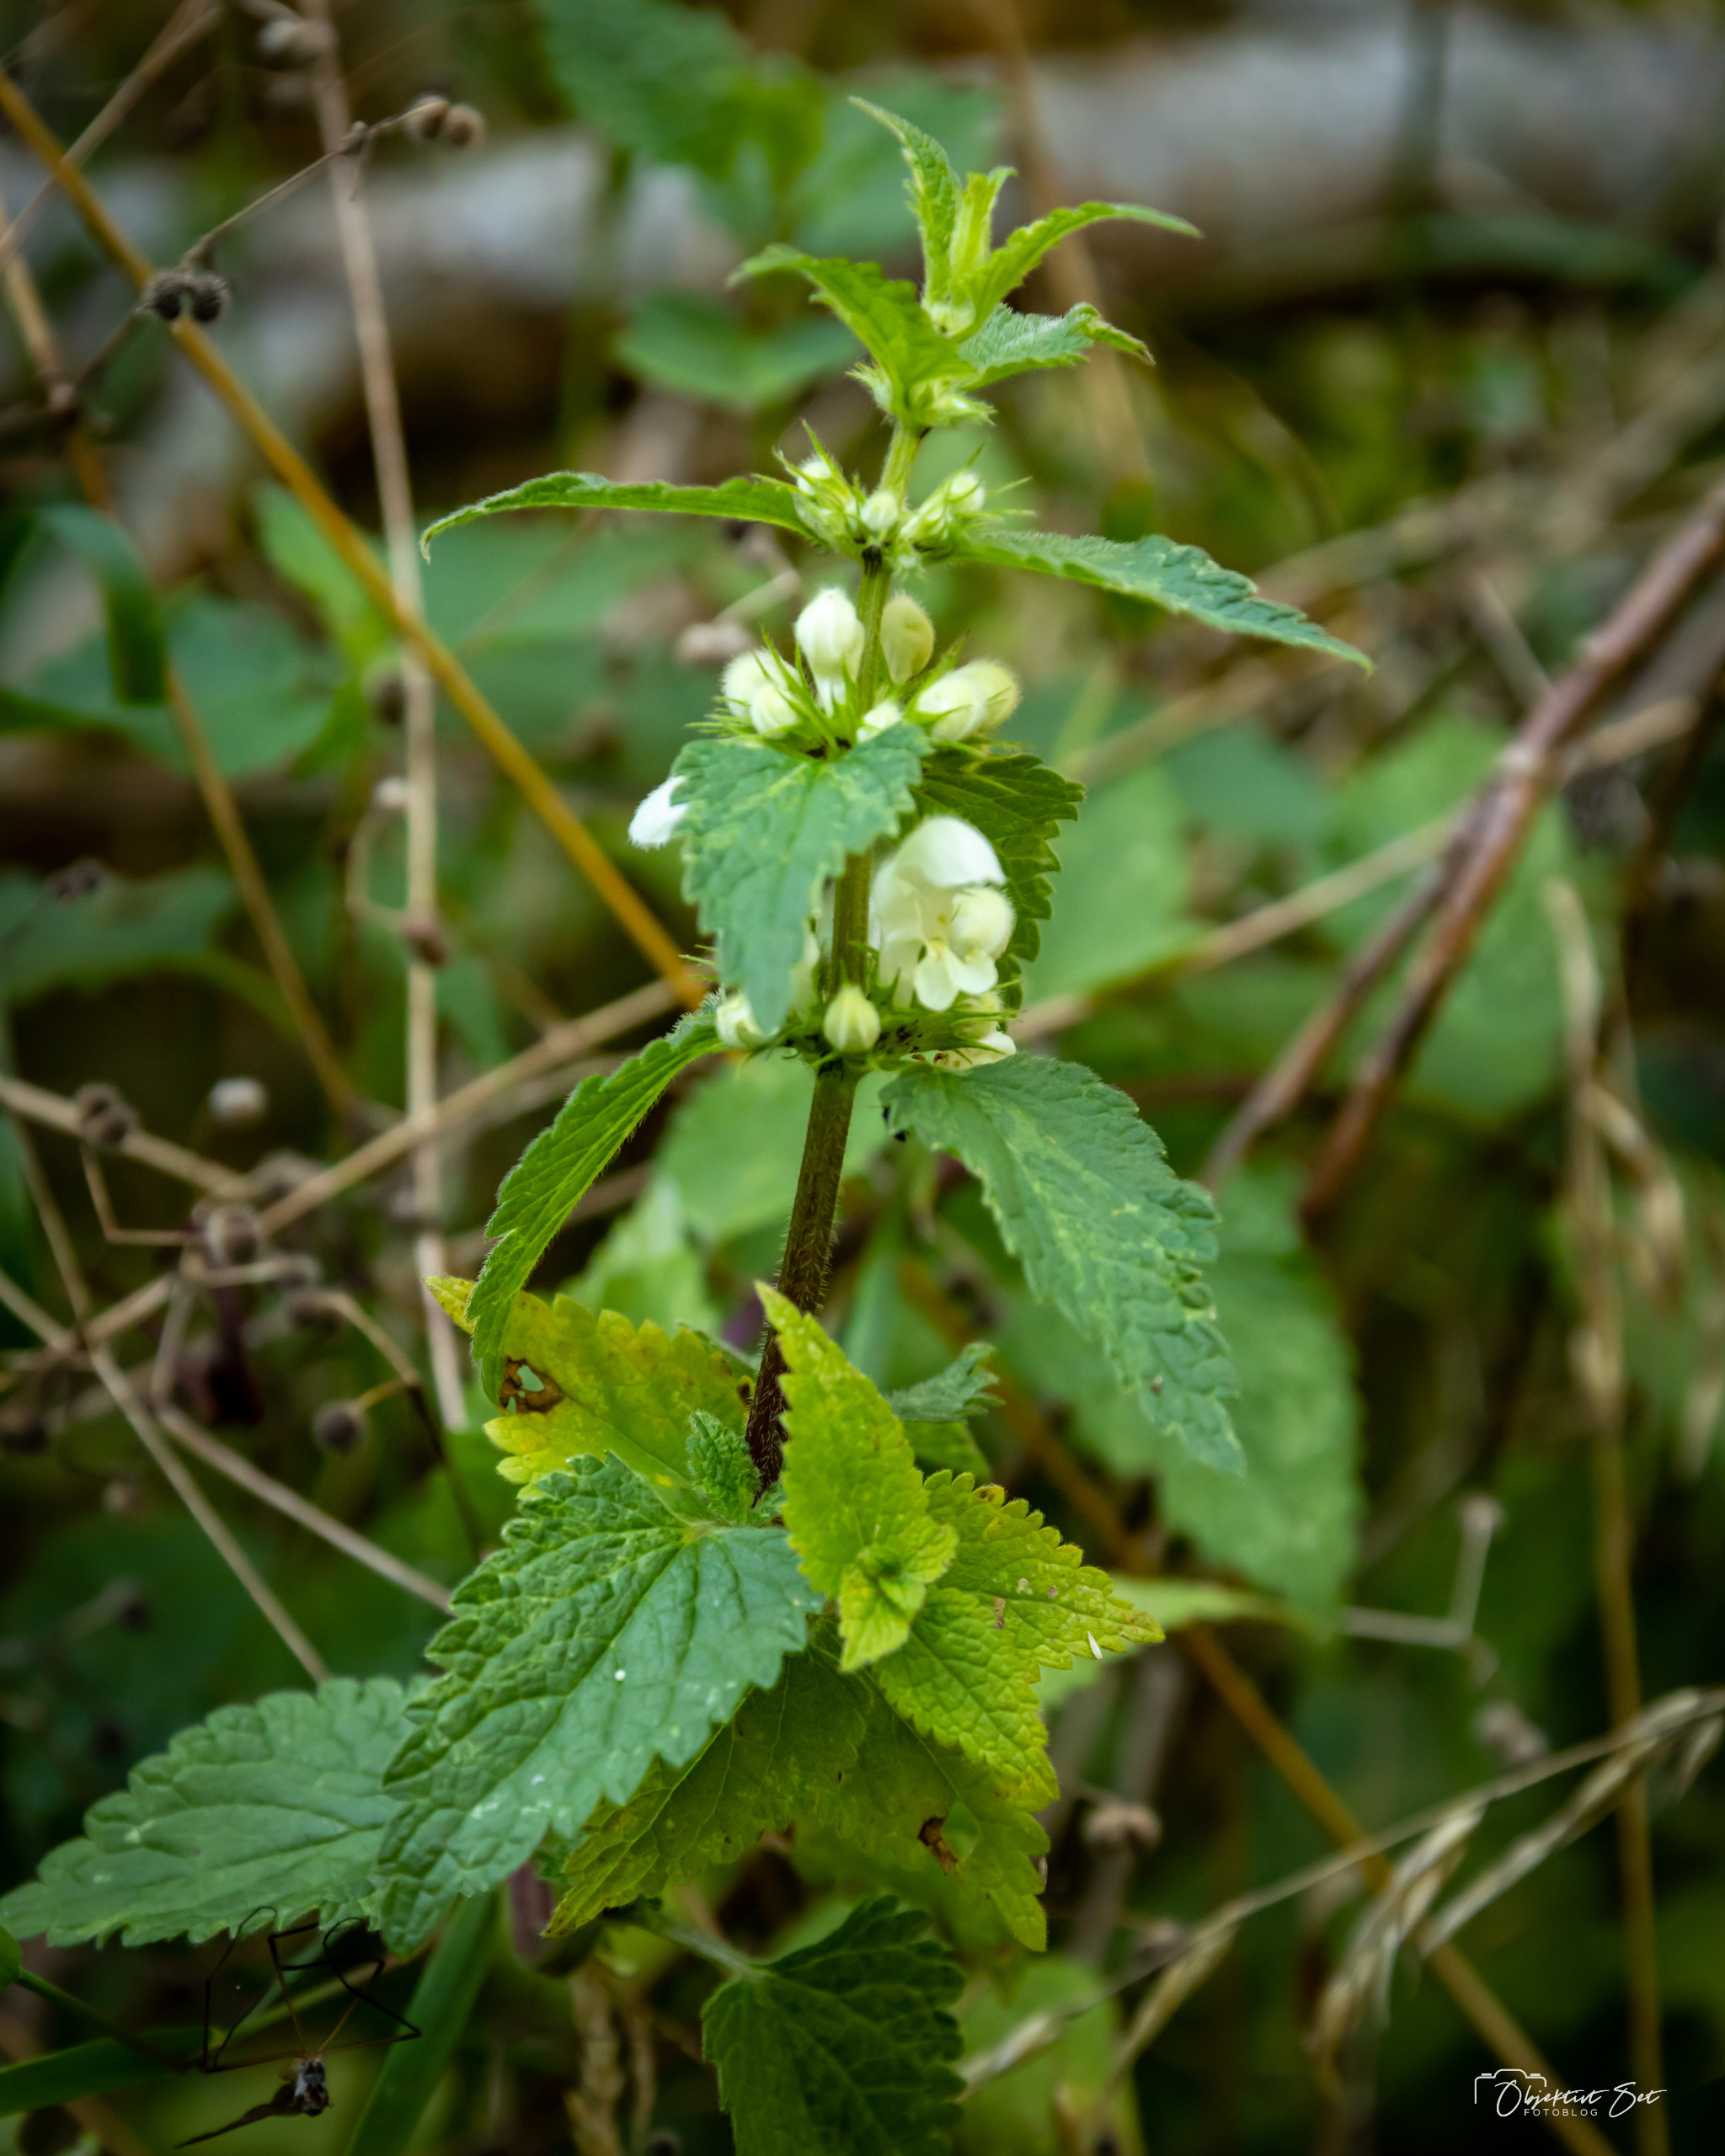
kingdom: Plantae
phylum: Tracheophyta
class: Magnoliopsida
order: Lamiales
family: Lamiaceae
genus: Lamium
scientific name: Lamium album
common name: Døvnælde
